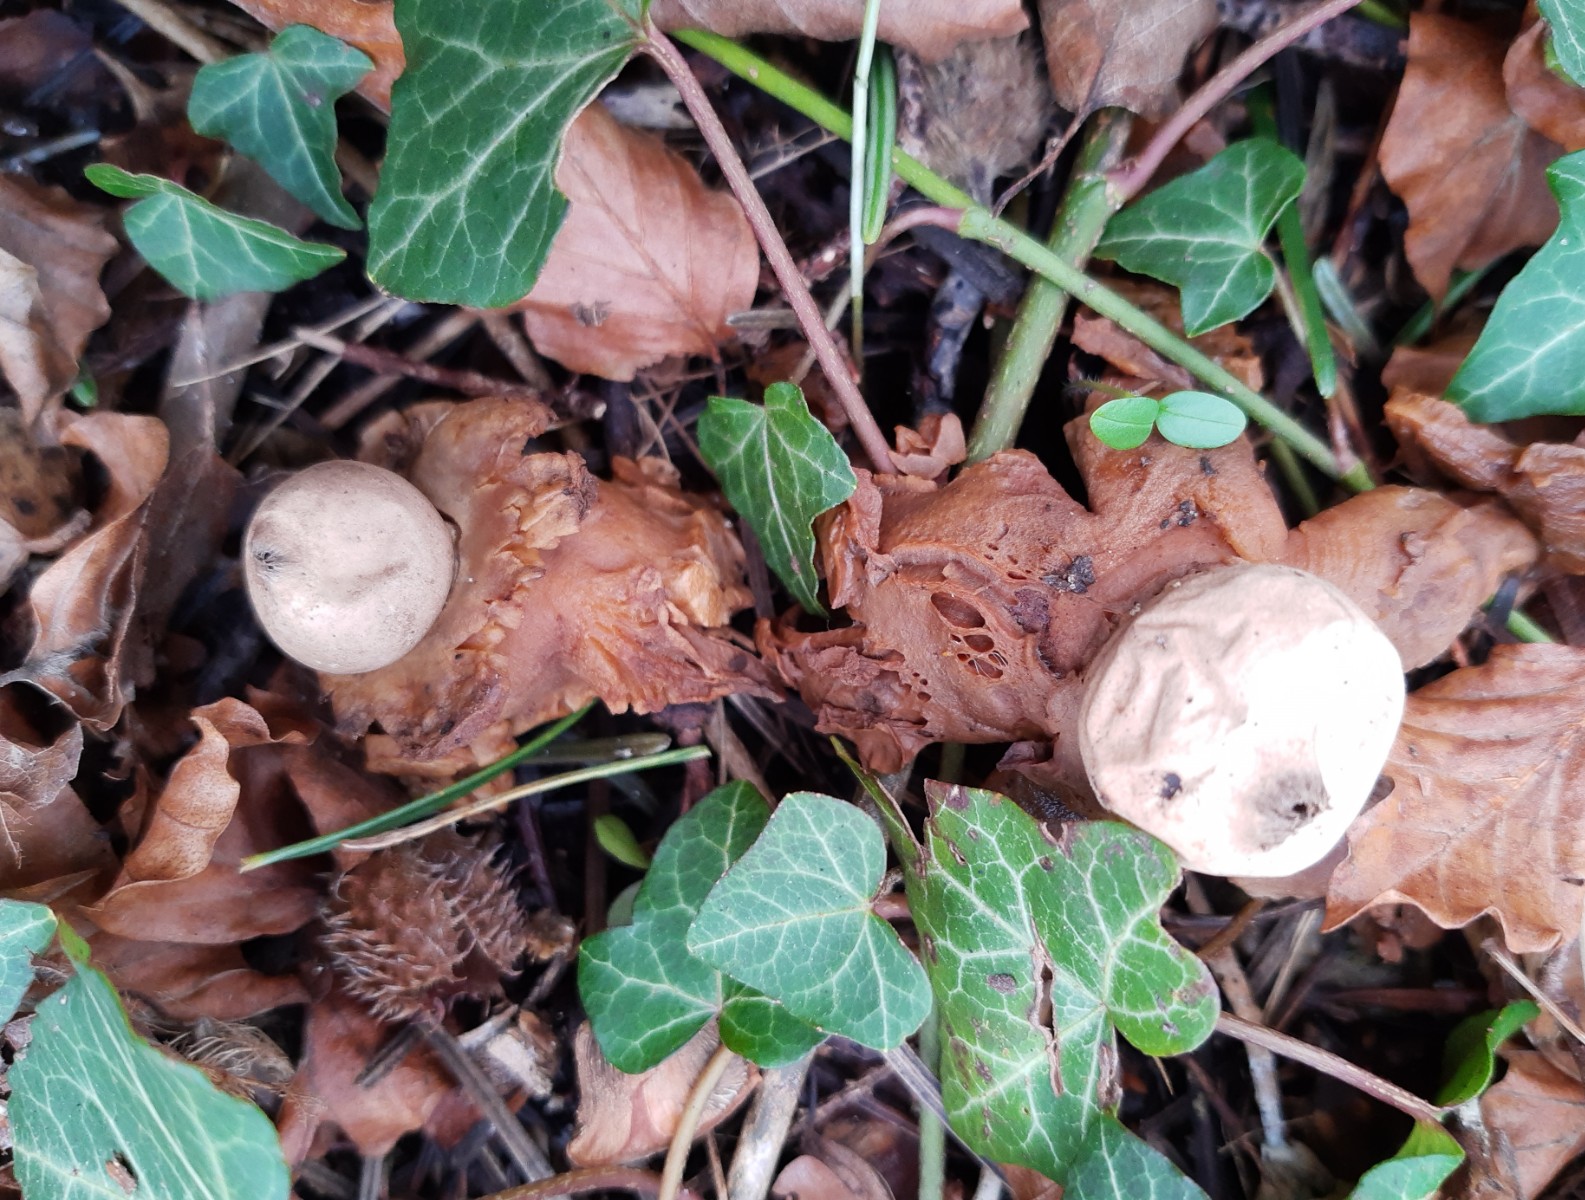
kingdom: Fungi
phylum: Basidiomycota
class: Agaricomycetes
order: Geastrales
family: Geastraceae
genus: Geastrum
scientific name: Geastrum michelianum
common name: kødet stjernebold
